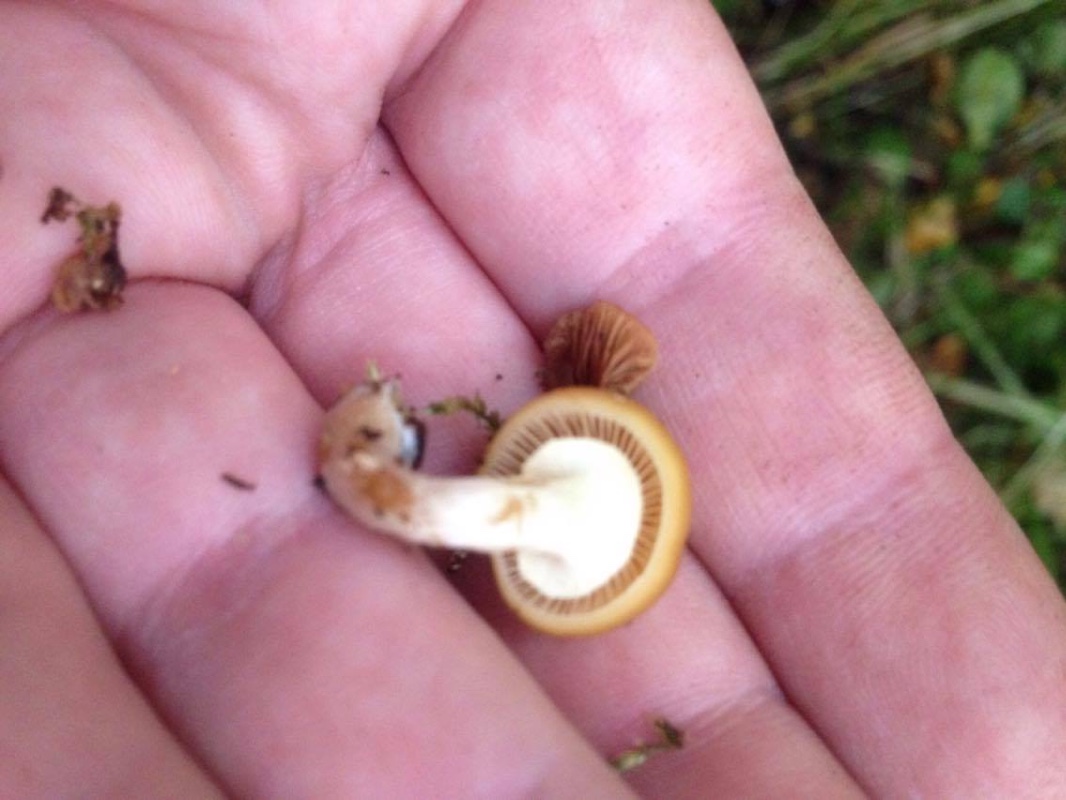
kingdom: Fungi
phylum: Basidiomycota
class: Agaricomycetes
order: Agaricales
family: Hymenogastraceae
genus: Galerina
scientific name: Galerina marginata
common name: randbæltet hjelmhat
